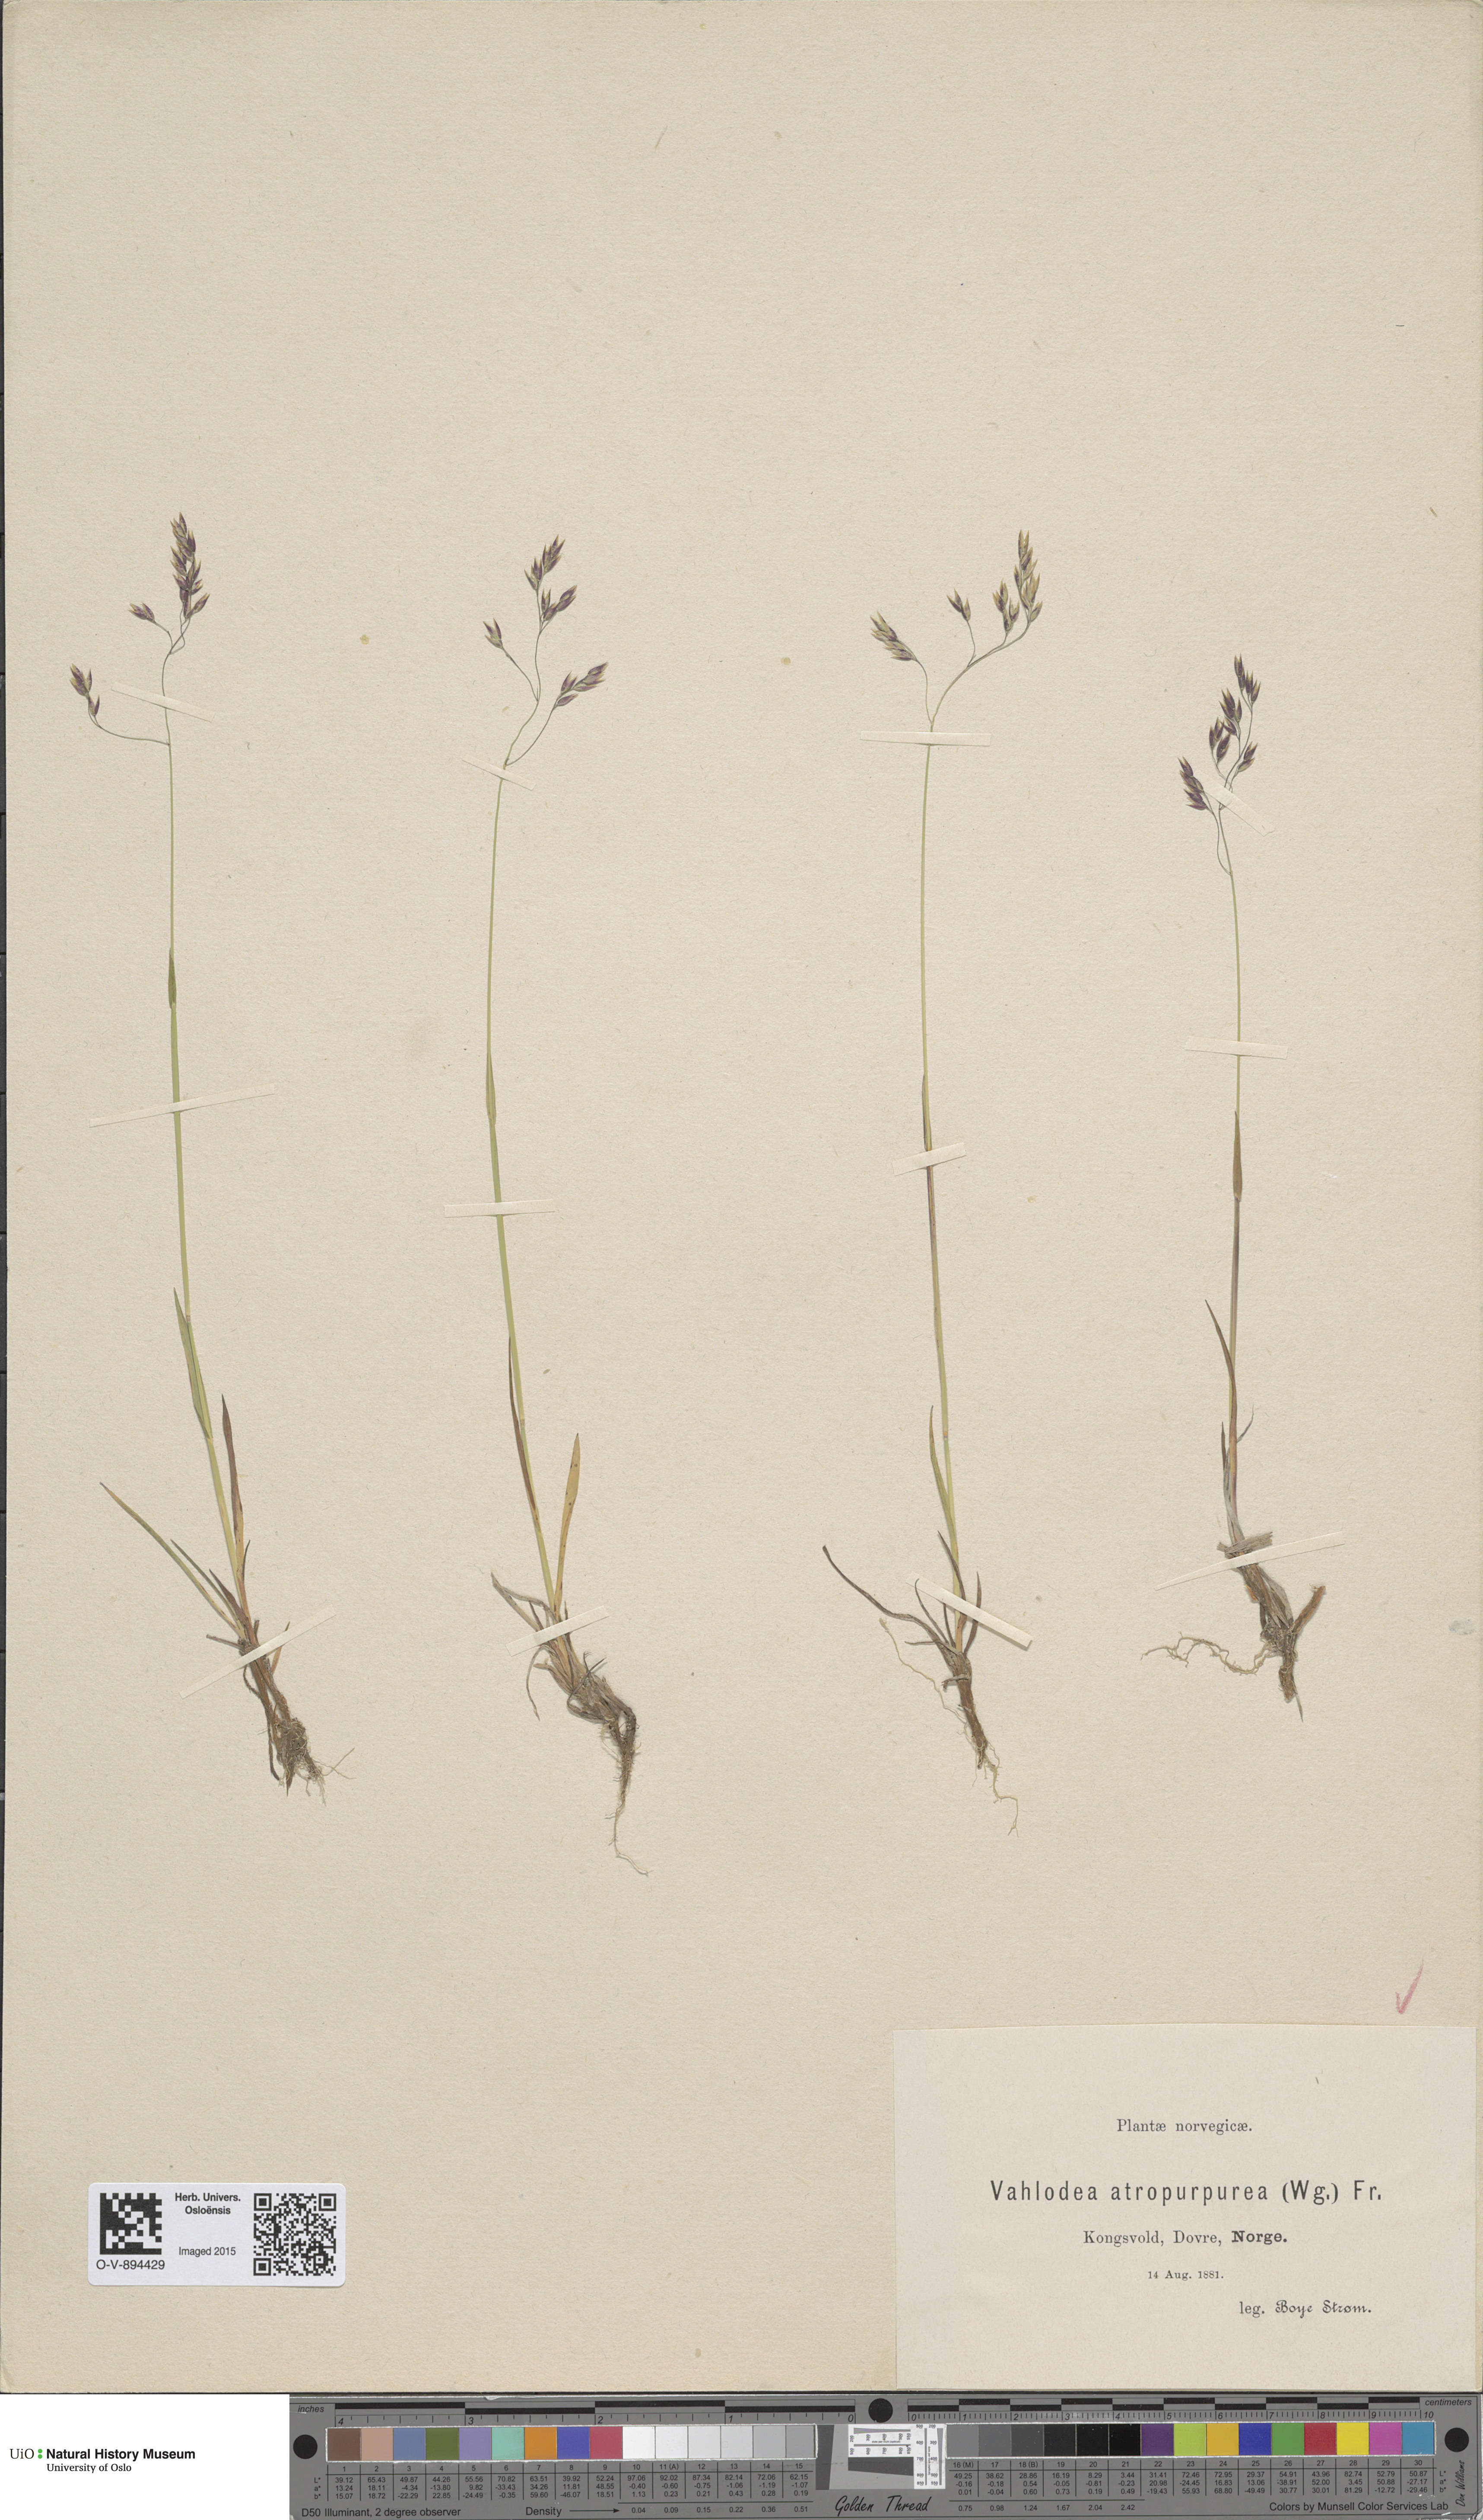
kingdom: Plantae
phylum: Tracheophyta
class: Liliopsida
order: Poales
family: Poaceae
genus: Vahlodea
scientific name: Vahlodea atropurpurea
